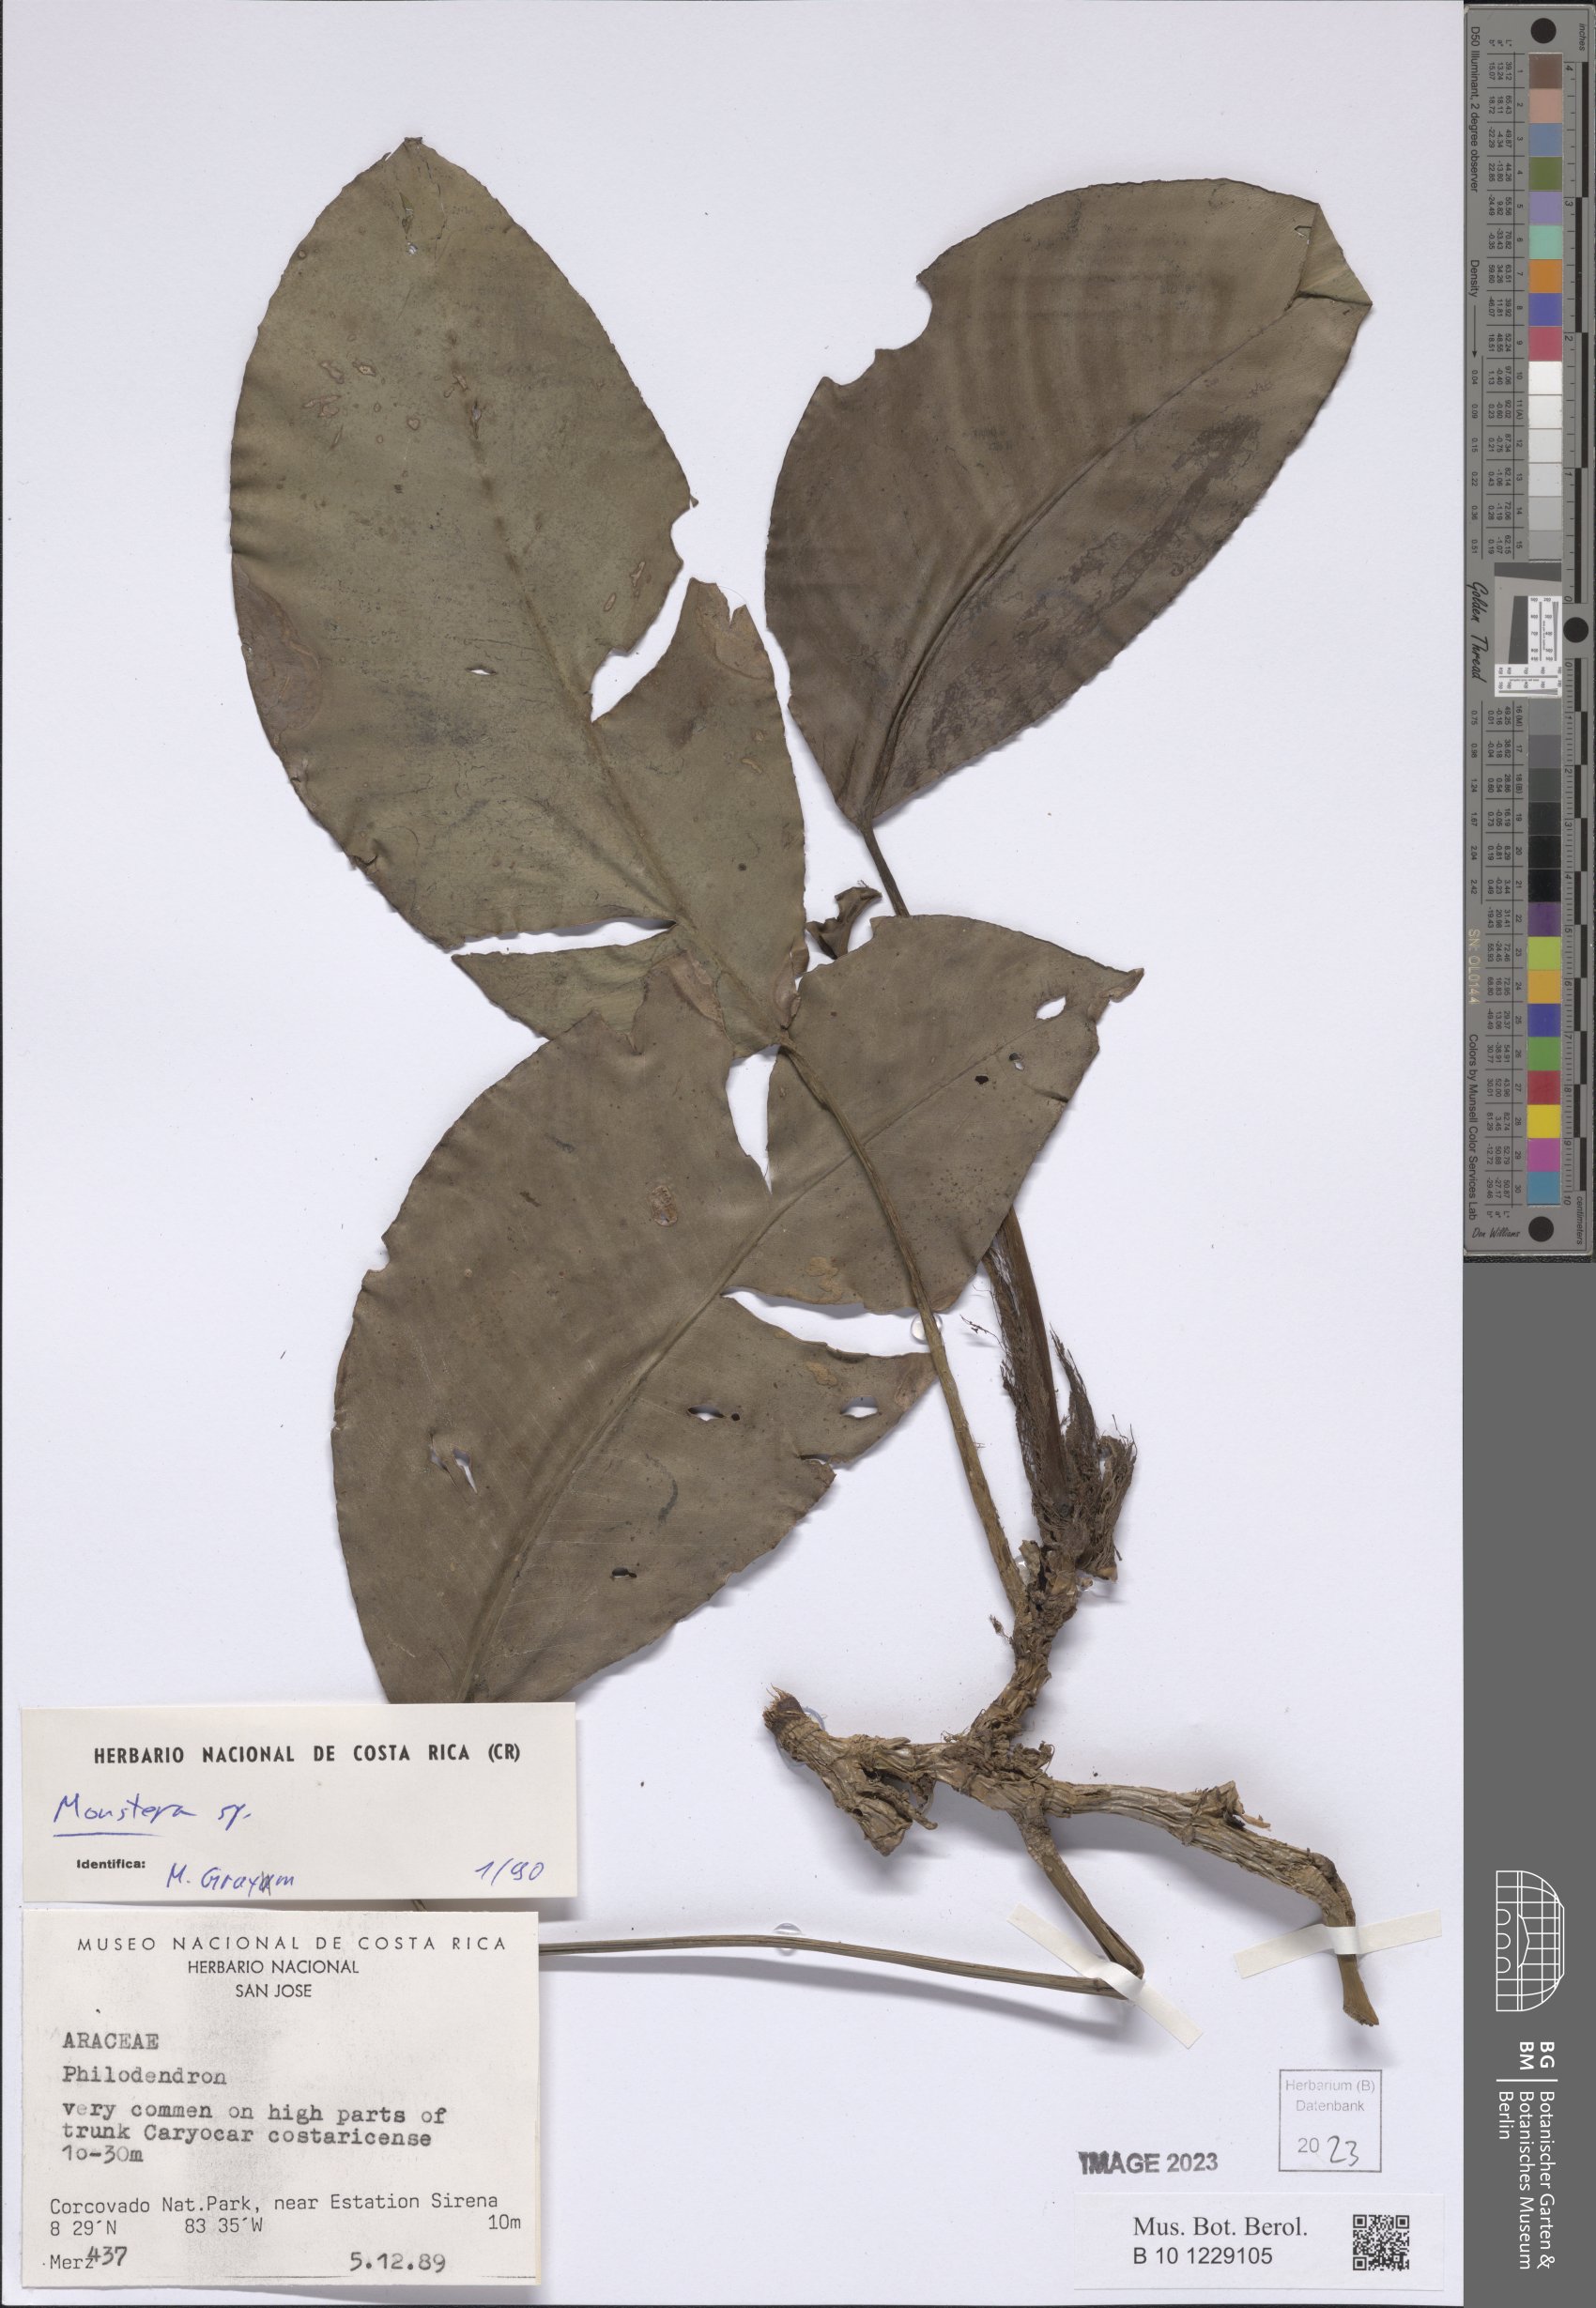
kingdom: Plantae
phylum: Tracheophyta
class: Liliopsida
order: Alismatales
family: Araceae
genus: Monstera
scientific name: Monstera
